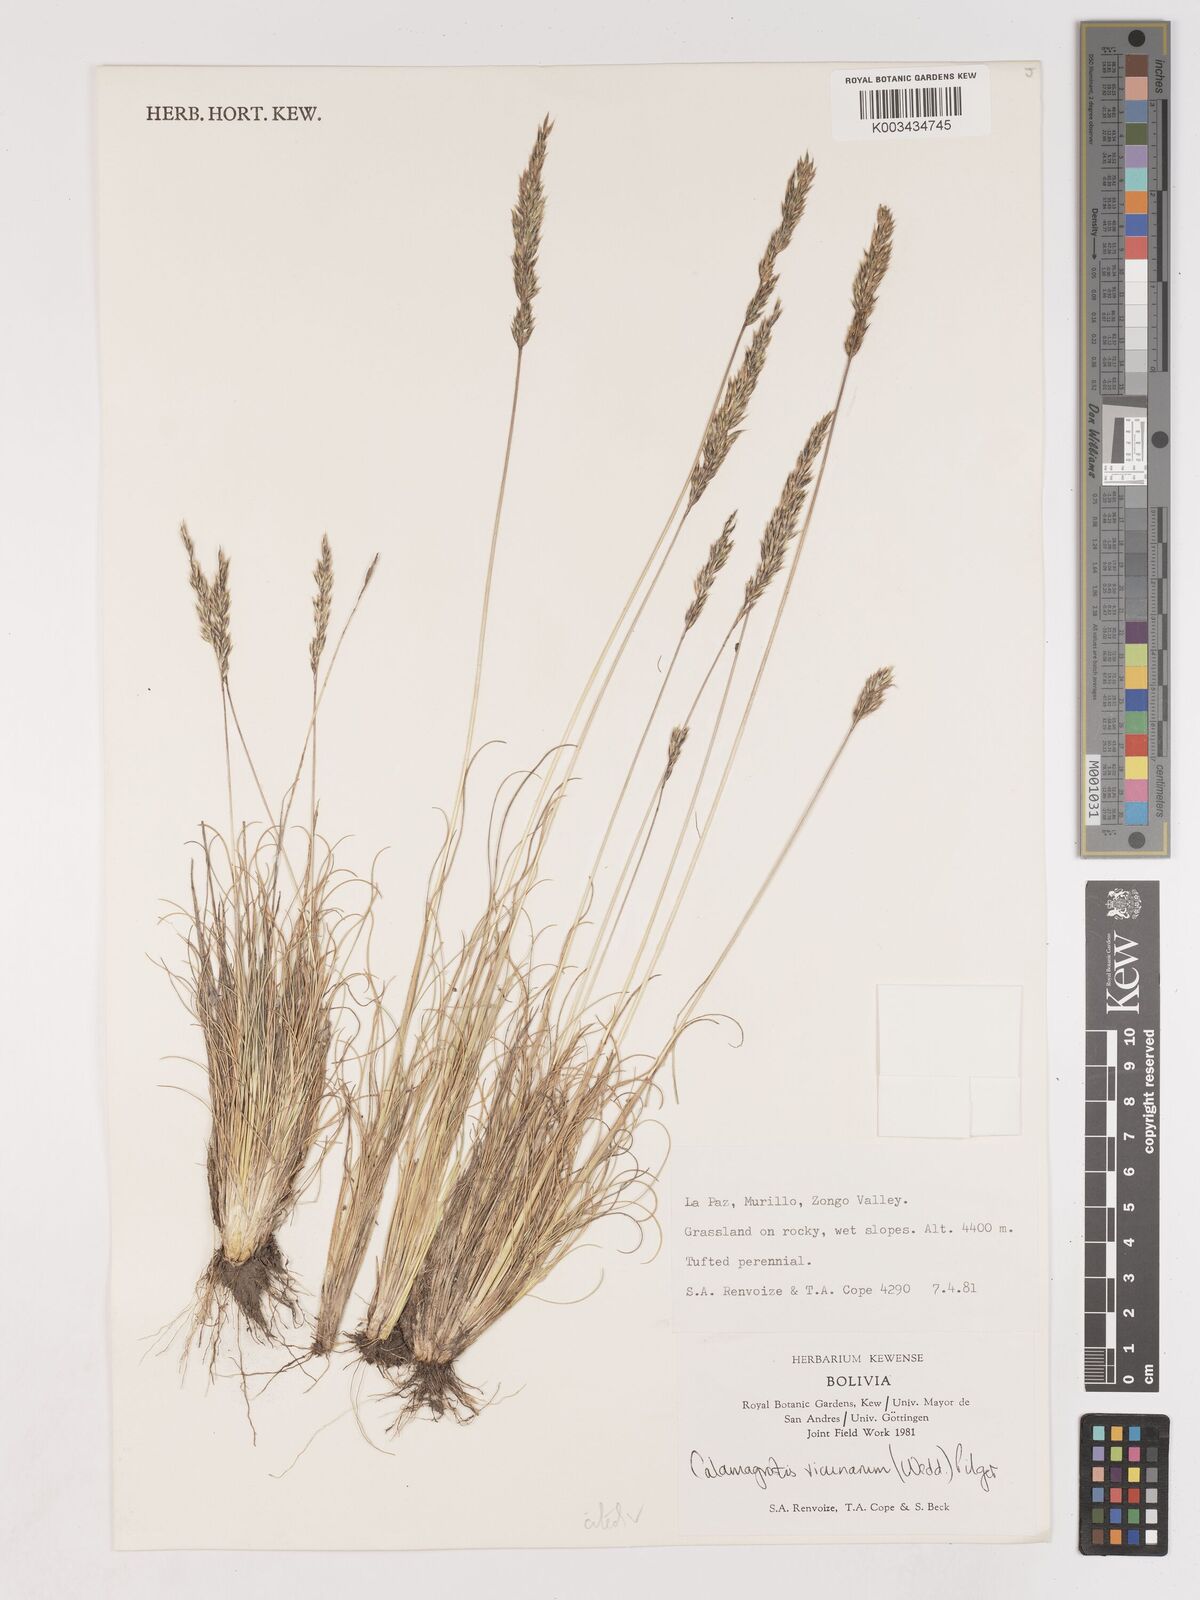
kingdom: Plantae
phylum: Tracheophyta
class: Liliopsida
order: Poales
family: Poaceae
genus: Cinnagrostis
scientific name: Cinnagrostis vicunarum
